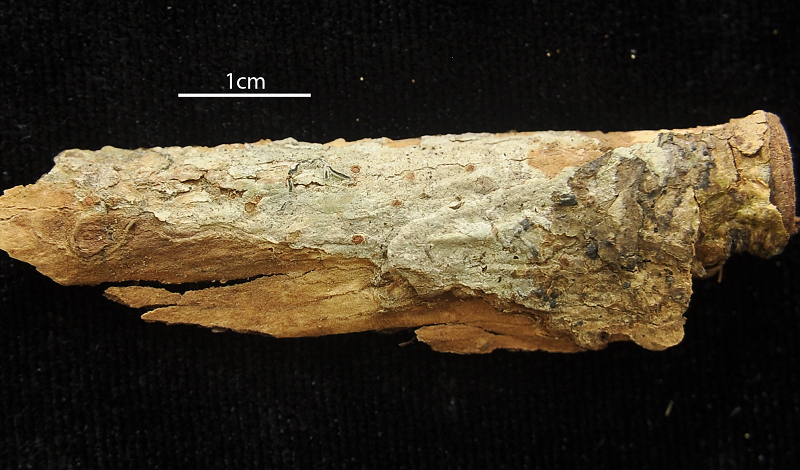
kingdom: Fungi
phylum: Ascomycota
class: Lecanoromycetes
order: Ostropales
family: Graphidaceae
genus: Graphis
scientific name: Graphis caesiocarpa
